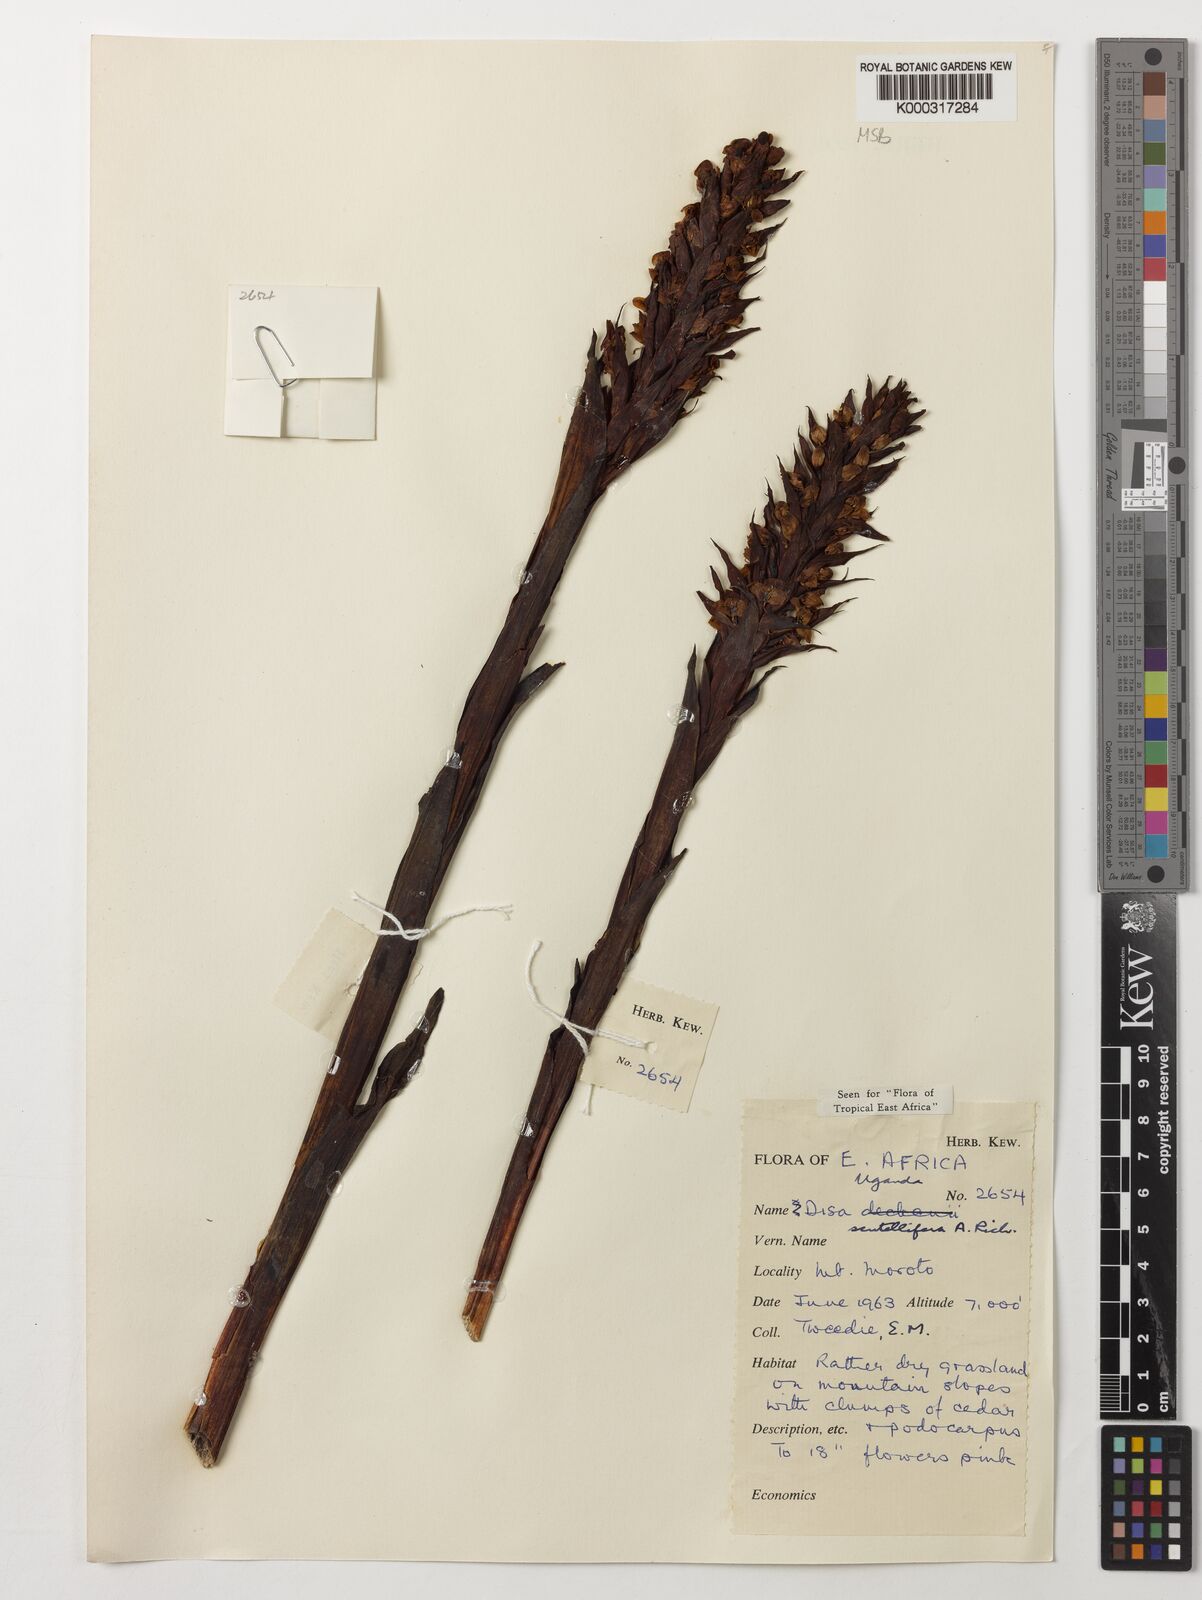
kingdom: Plantae
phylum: Tracheophyta
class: Liliopsida
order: Asparagales
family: Orchidaceae
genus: Disa
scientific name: Disa scutellifera
